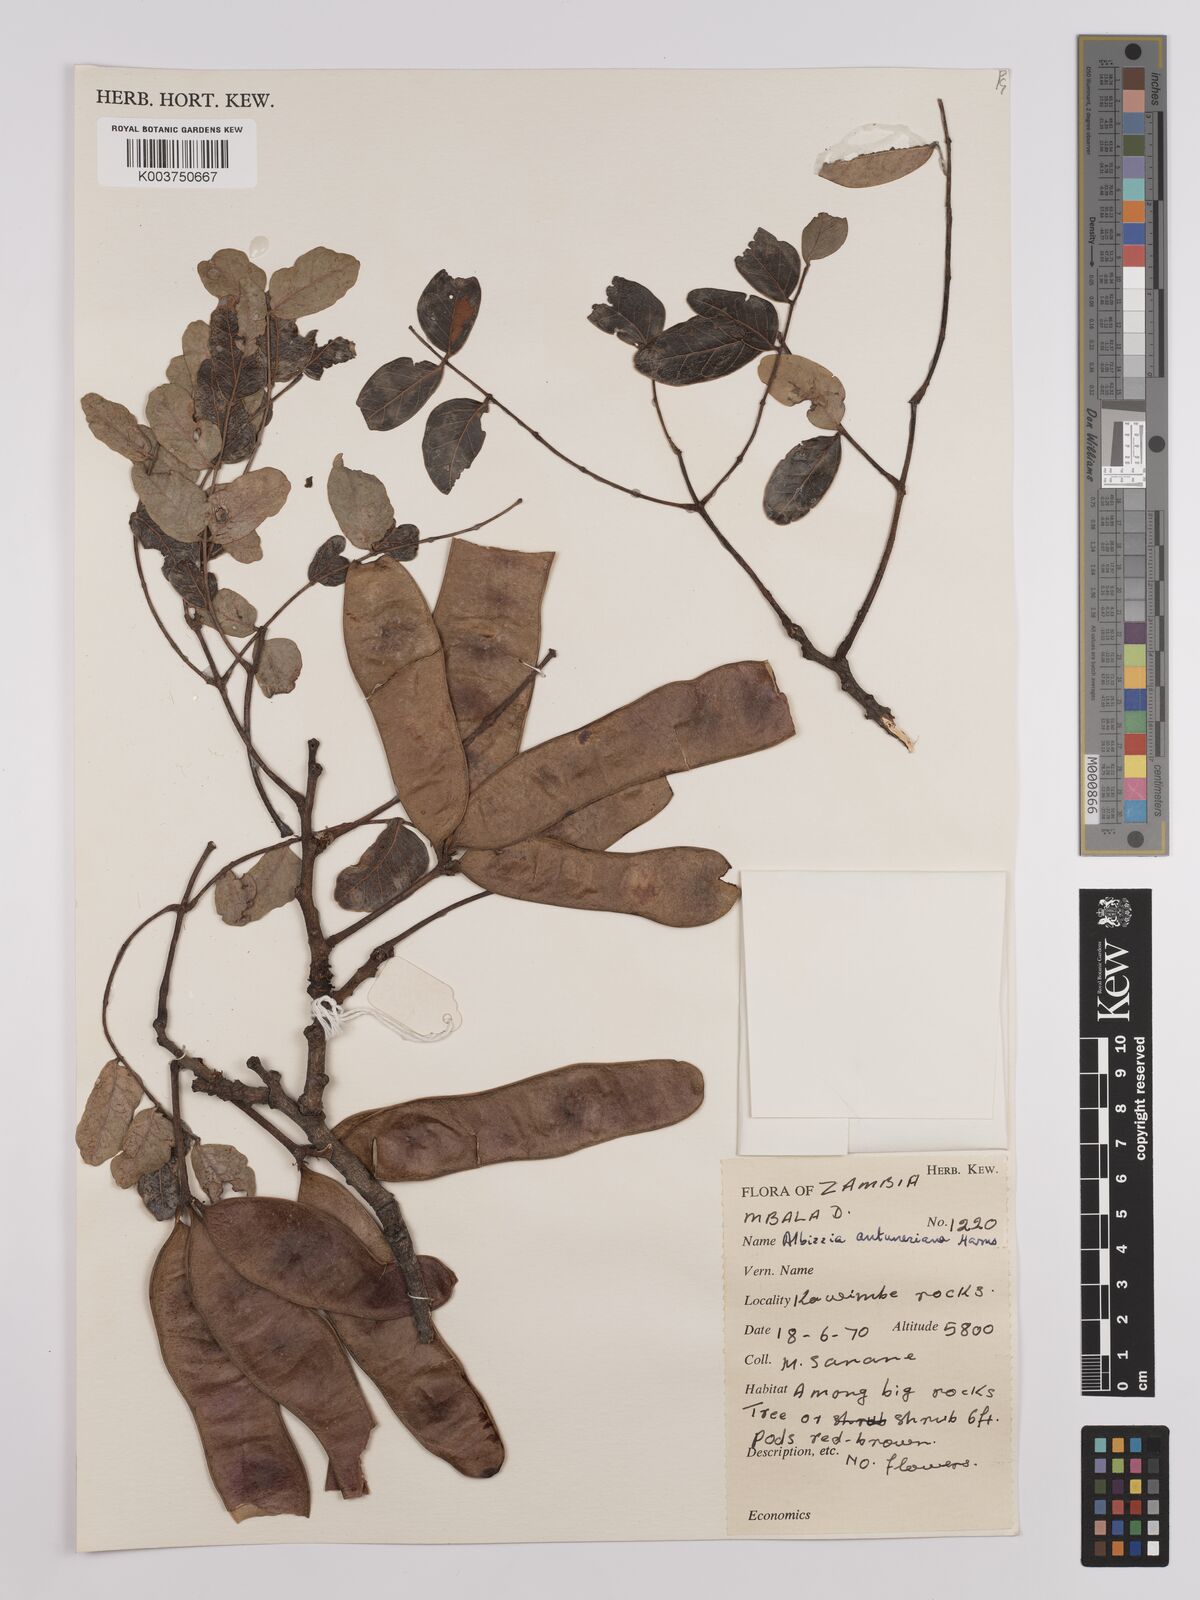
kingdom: Plantae
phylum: Tracheophyta
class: Magnoliopsida
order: Fabales
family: Fabaceae
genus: Albizia
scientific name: Albizia antunesiana
